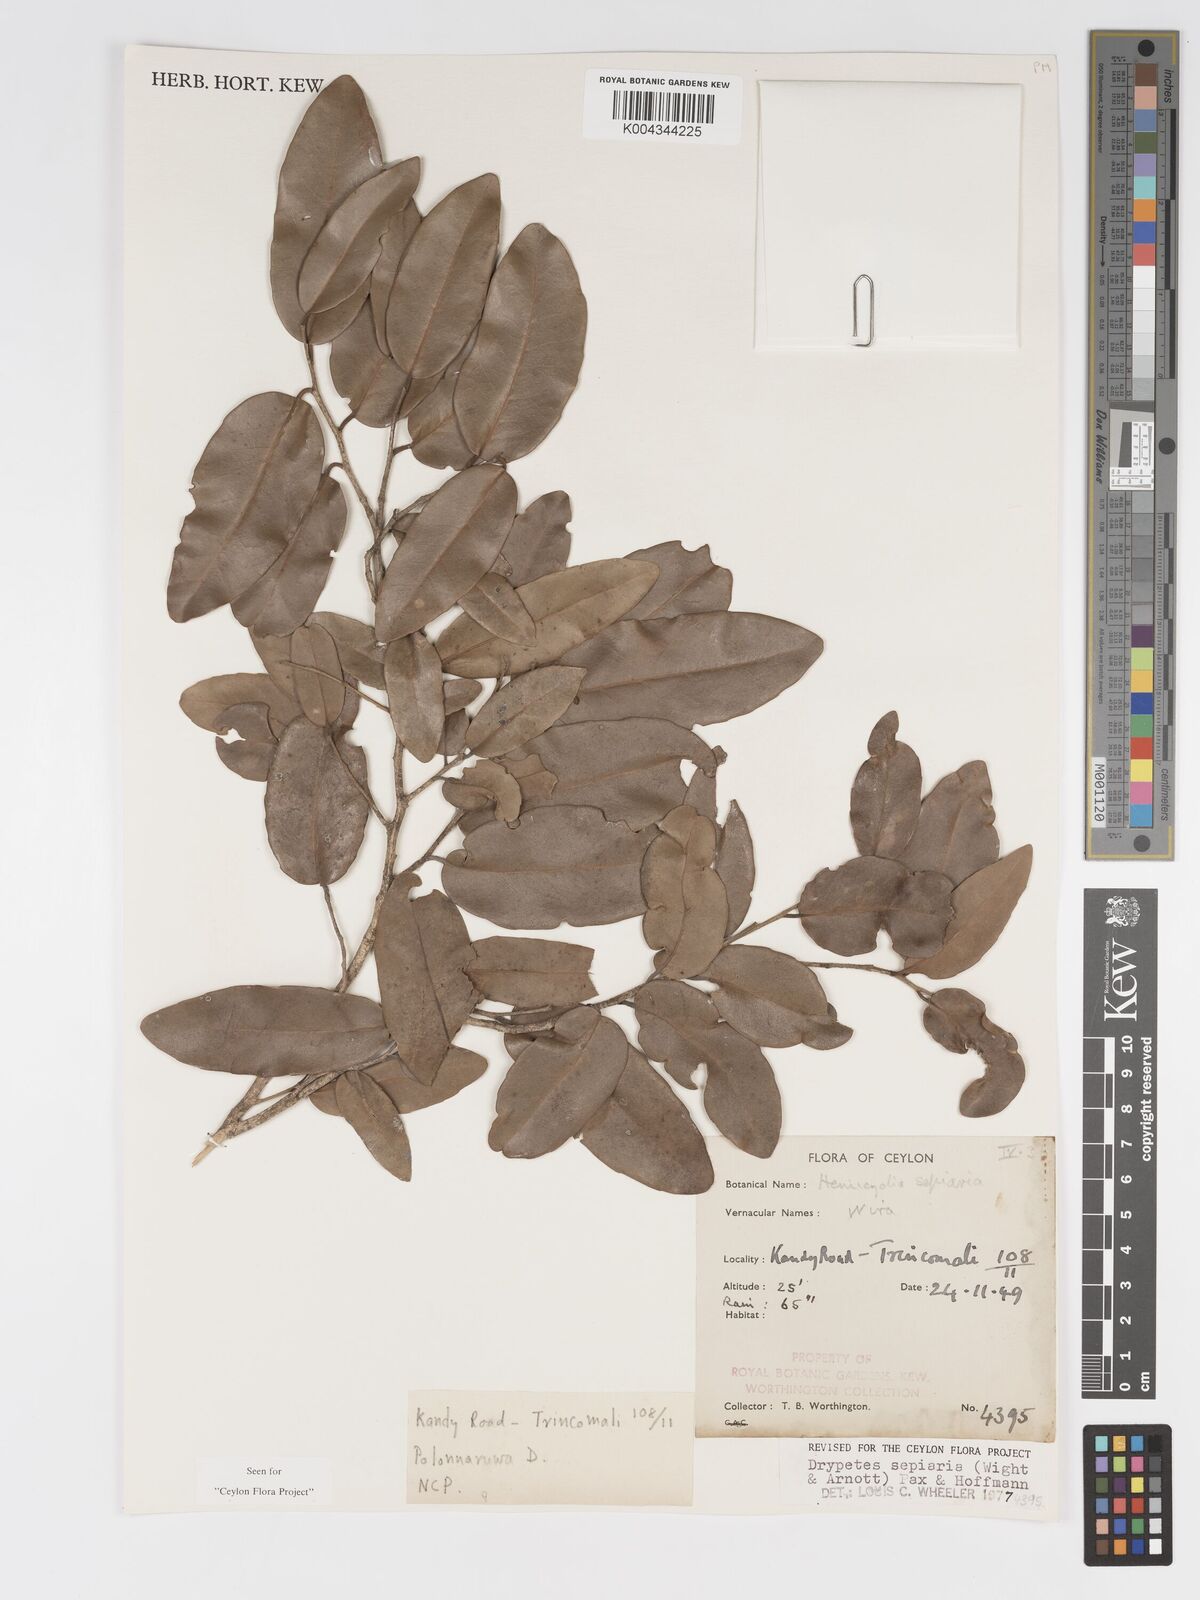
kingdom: Plantae
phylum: Tracheophyta
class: Magnoliopsida
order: Malpighiales
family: Putranjivaceae
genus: Drypetes
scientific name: Drypetes sepiaria
